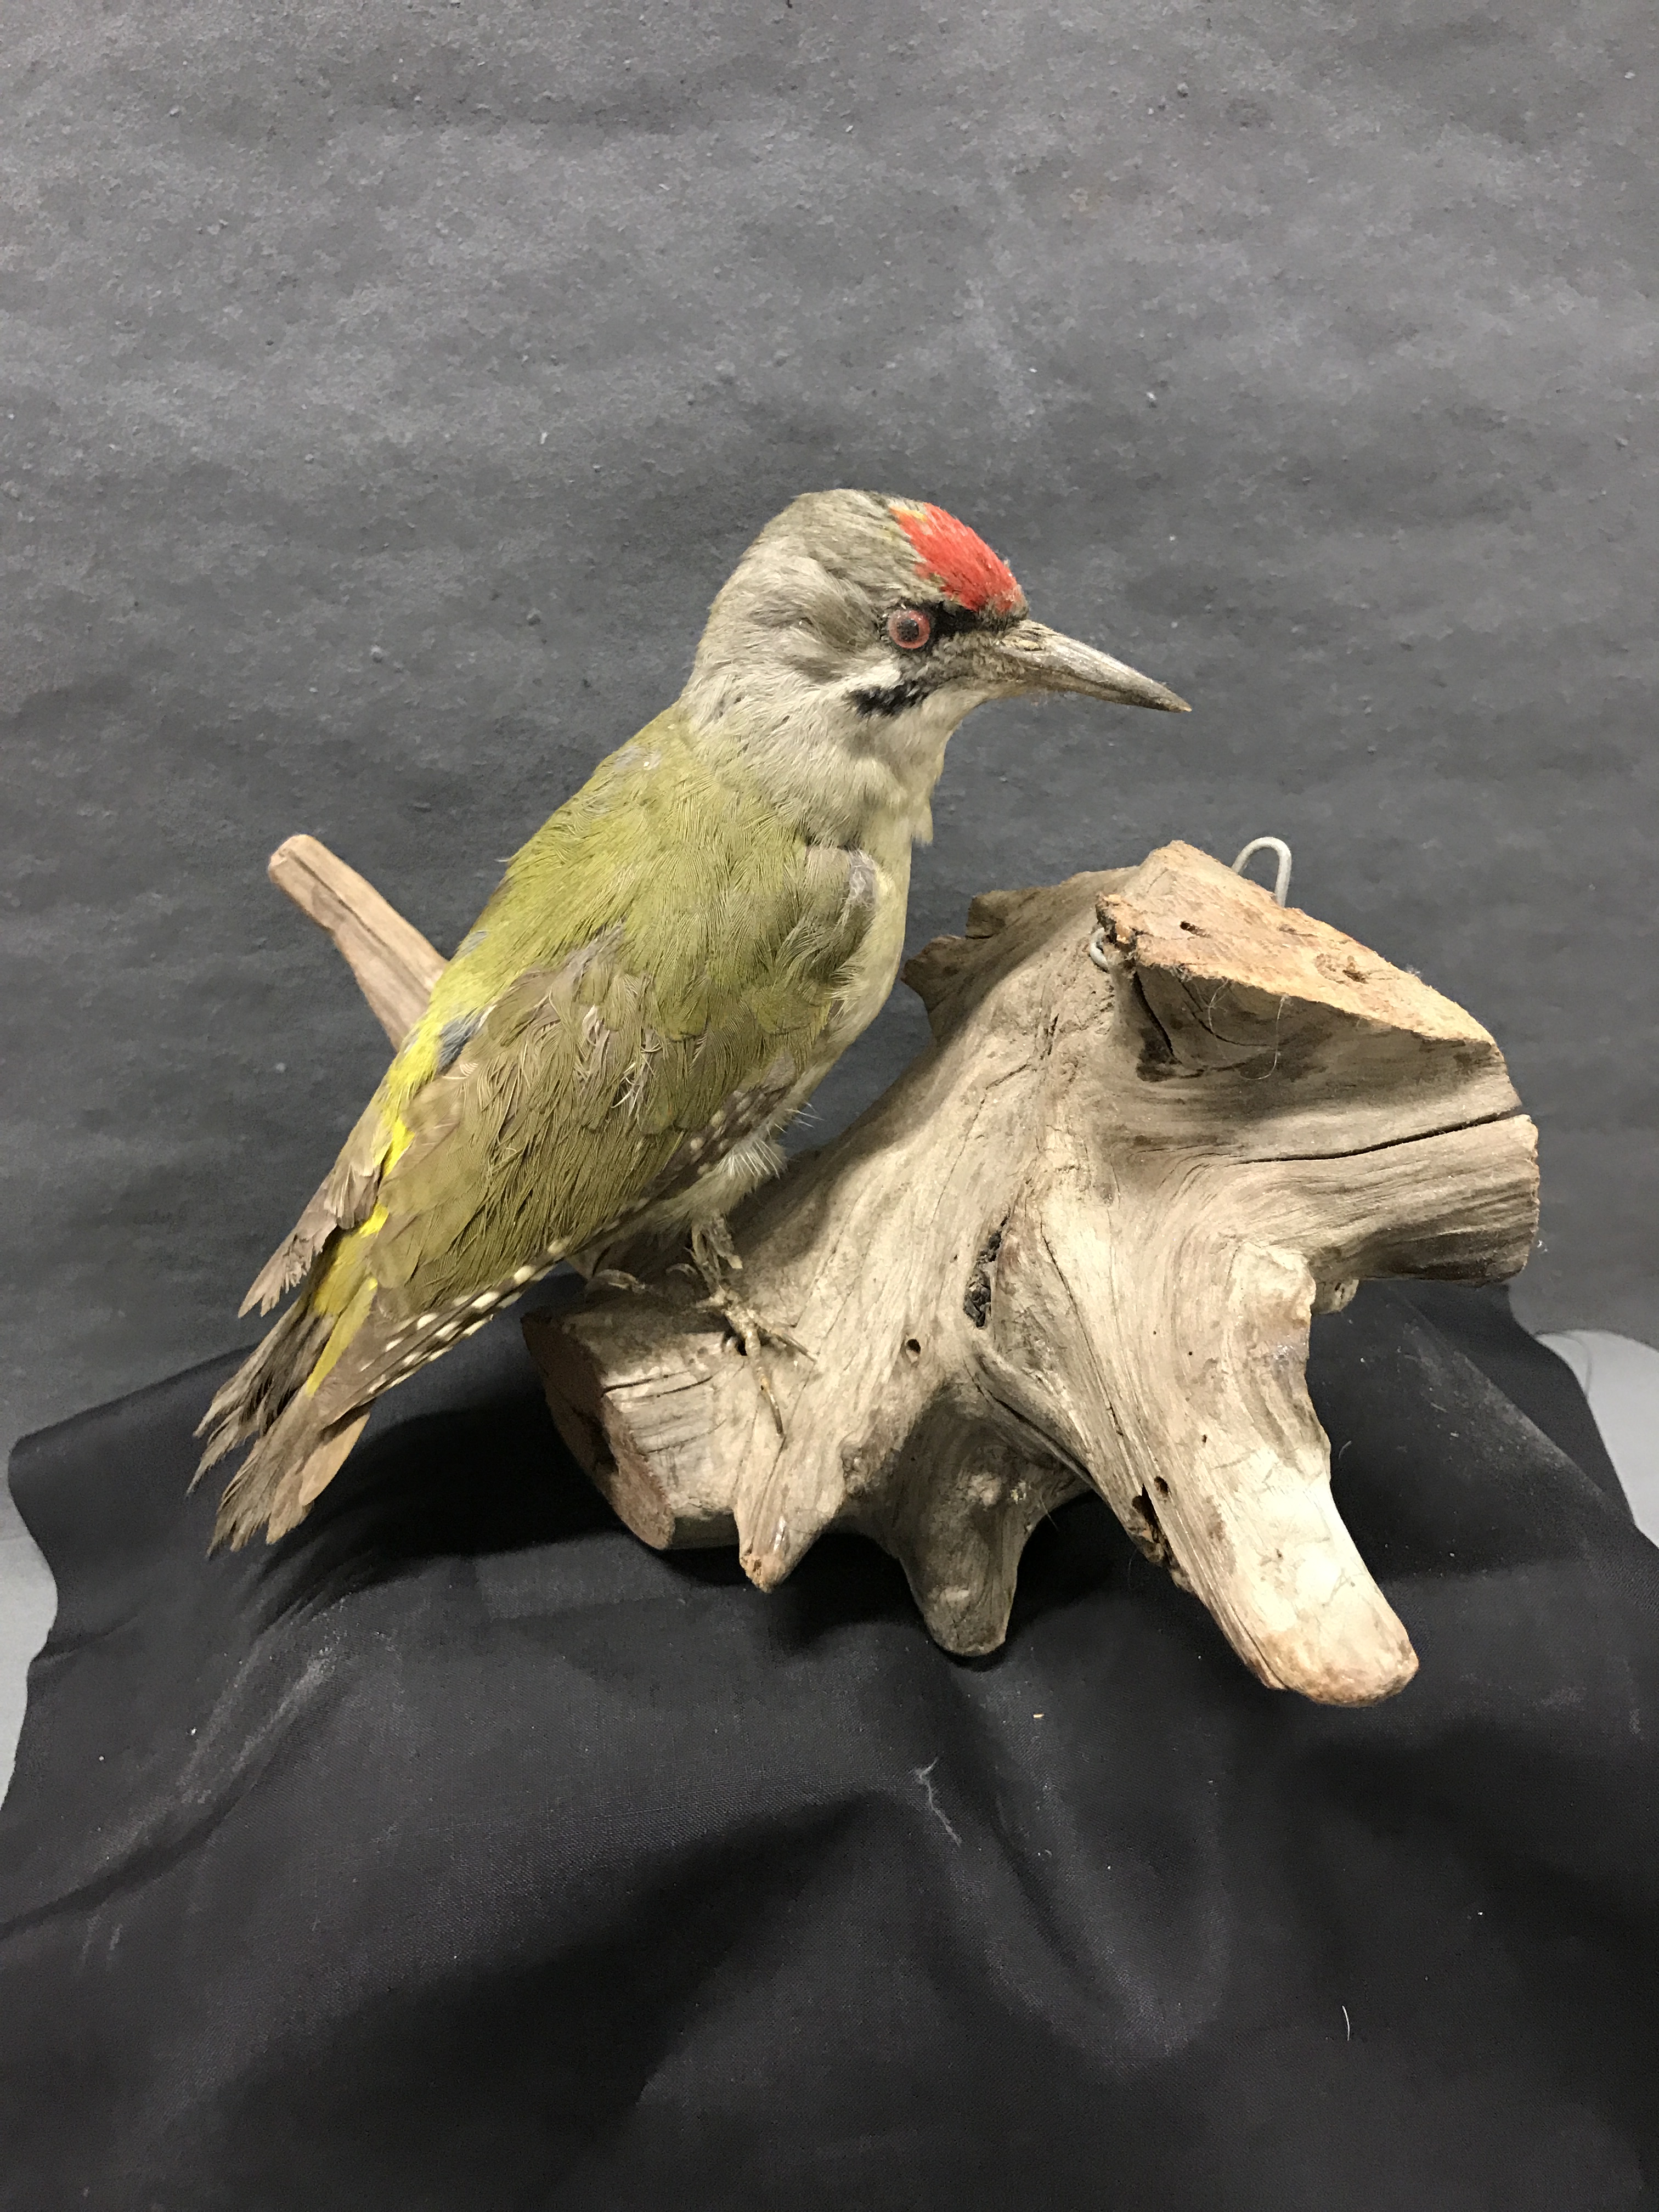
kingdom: Animalia
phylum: Chordata
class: Aves
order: Piciformes
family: Picidae
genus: Picus
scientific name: Picus canus
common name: Grey-headed woodpecker
